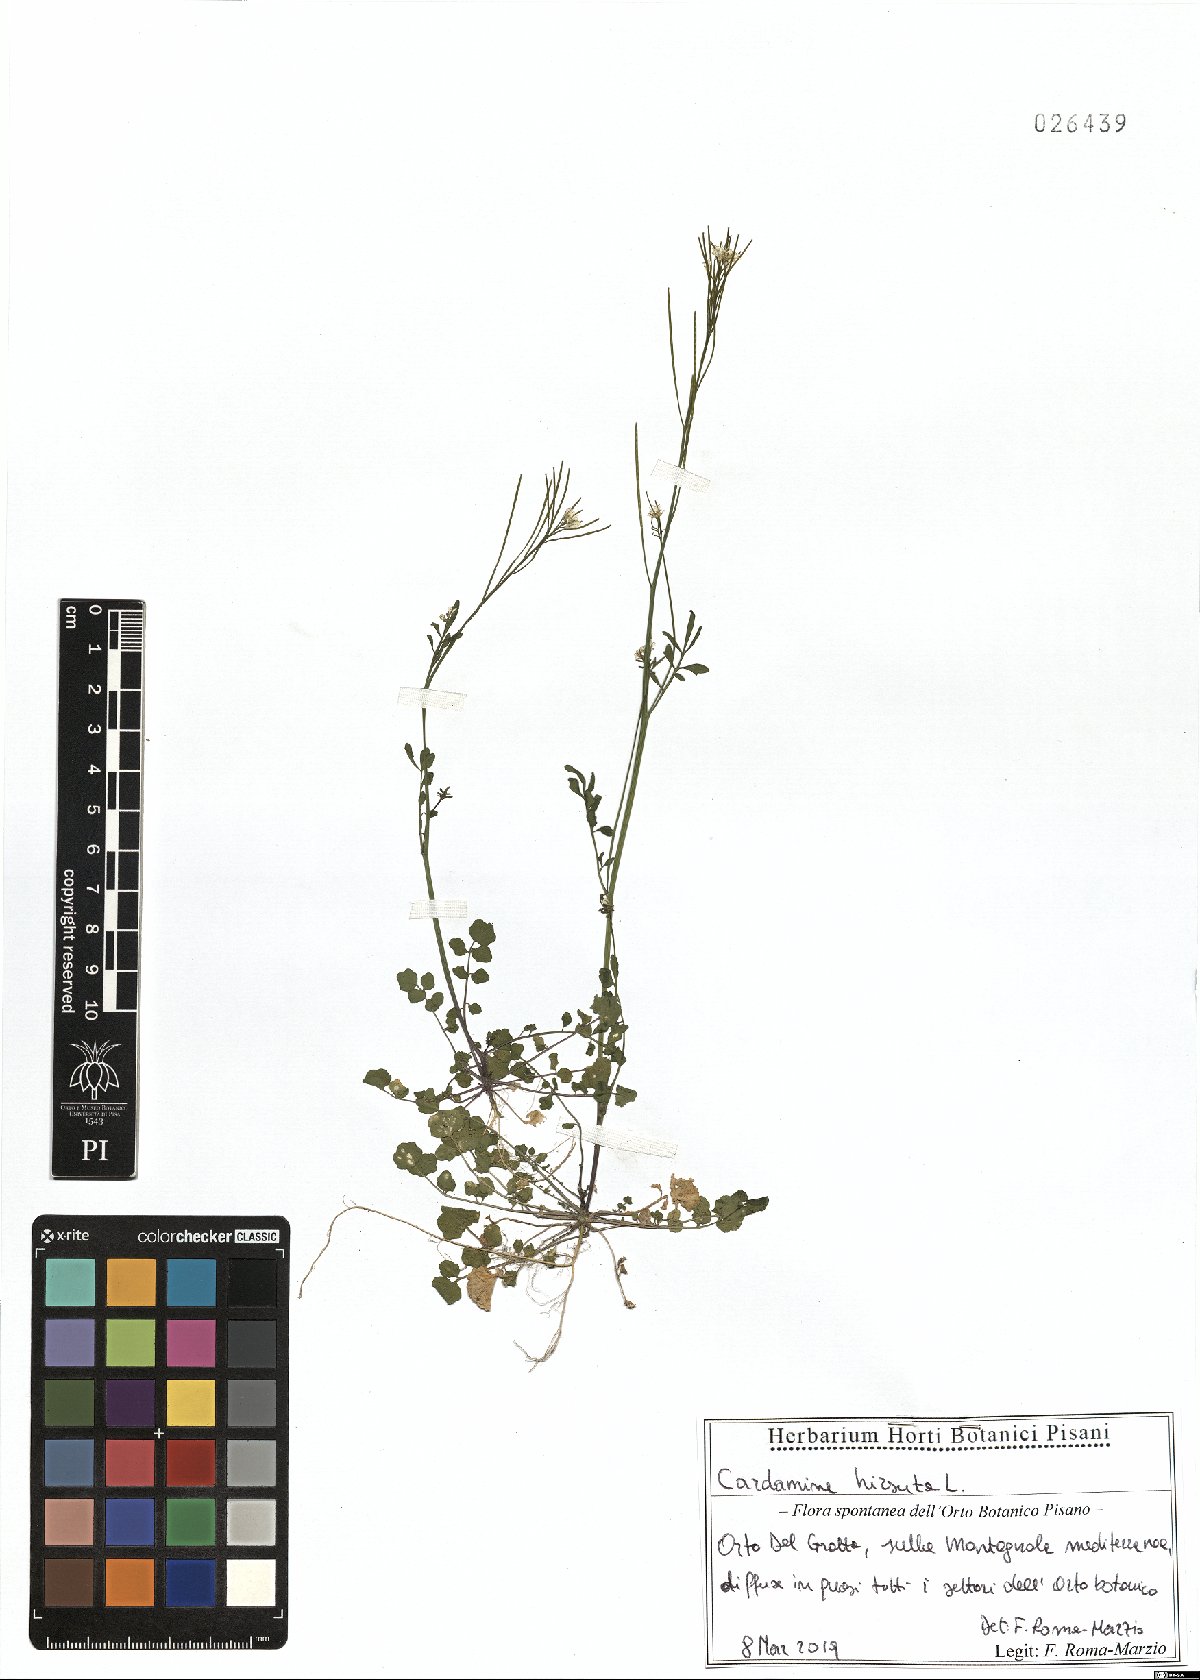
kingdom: Plantae
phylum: Tracheophyta
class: Magnoliopsida
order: Brassicales
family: Brassicaceae
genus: Cardamine
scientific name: Cardamine hirsuta
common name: Hairy bittercress
